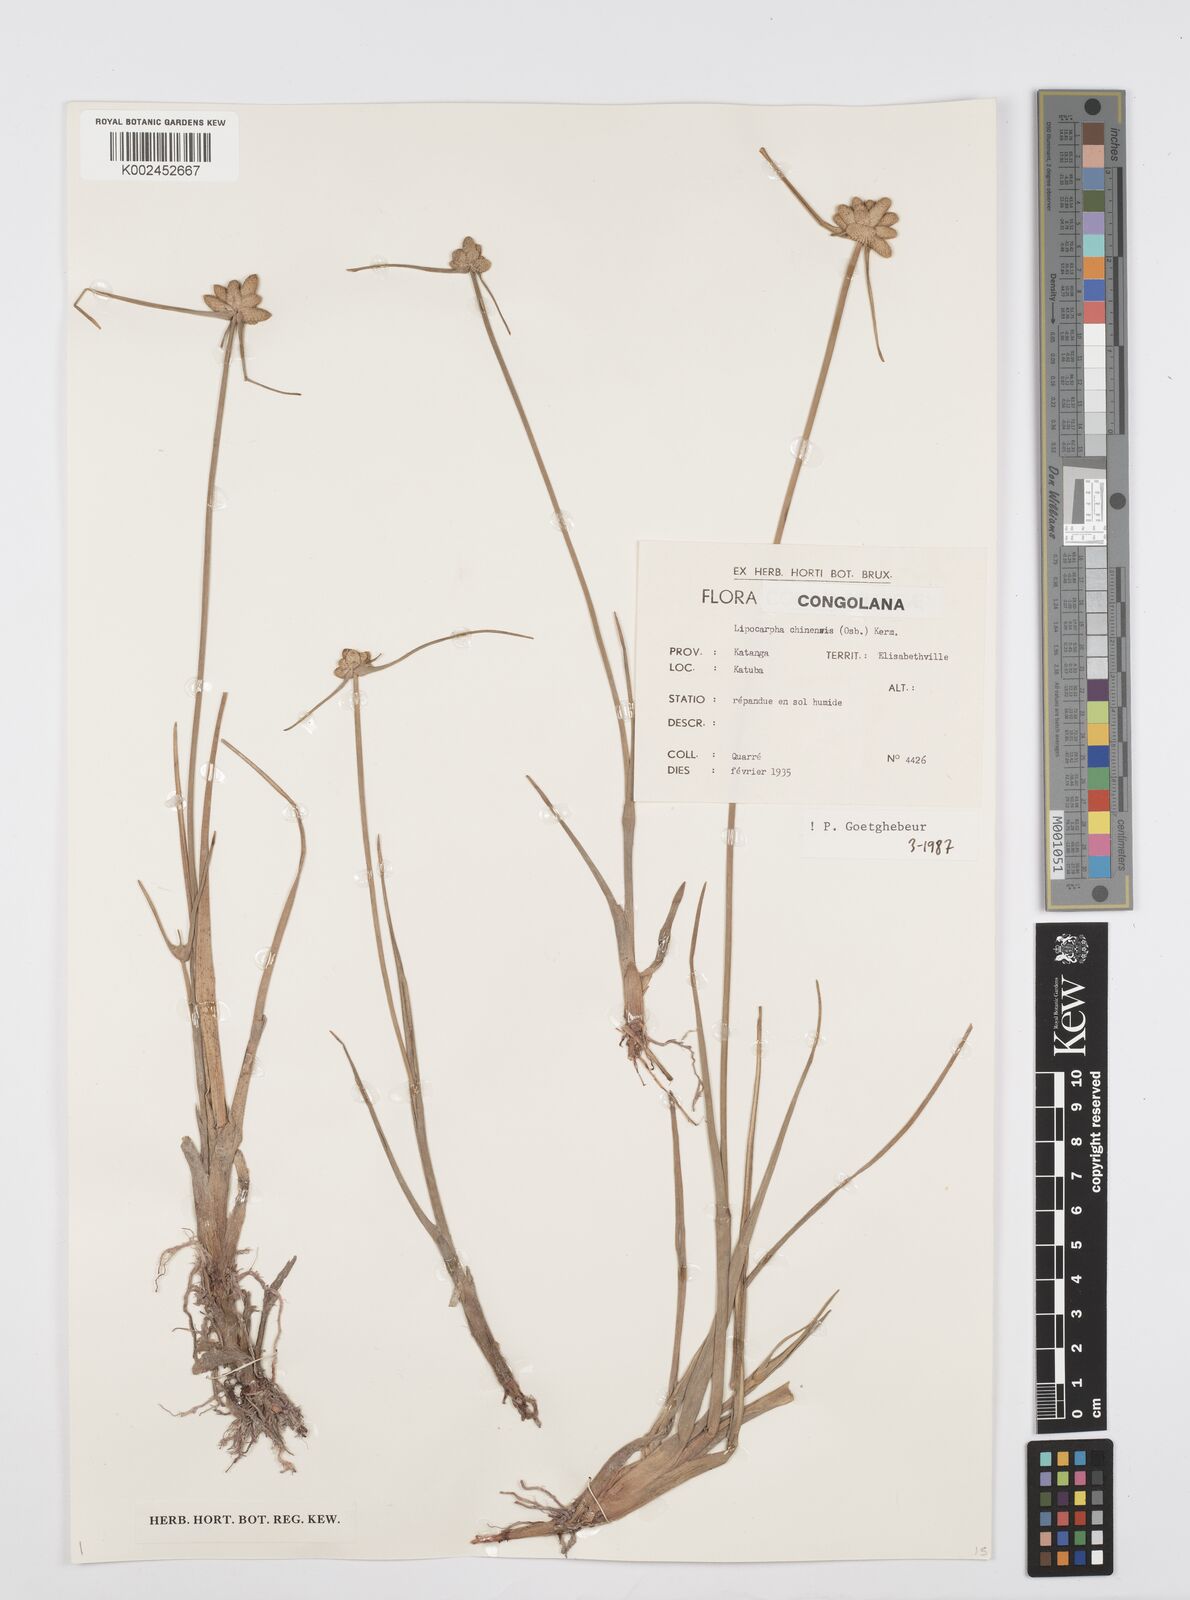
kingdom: Plantae
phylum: Tracheophyta
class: Liliopsida
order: Poales
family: Cyperaceae
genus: Cyperus
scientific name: Cyperus albescens
